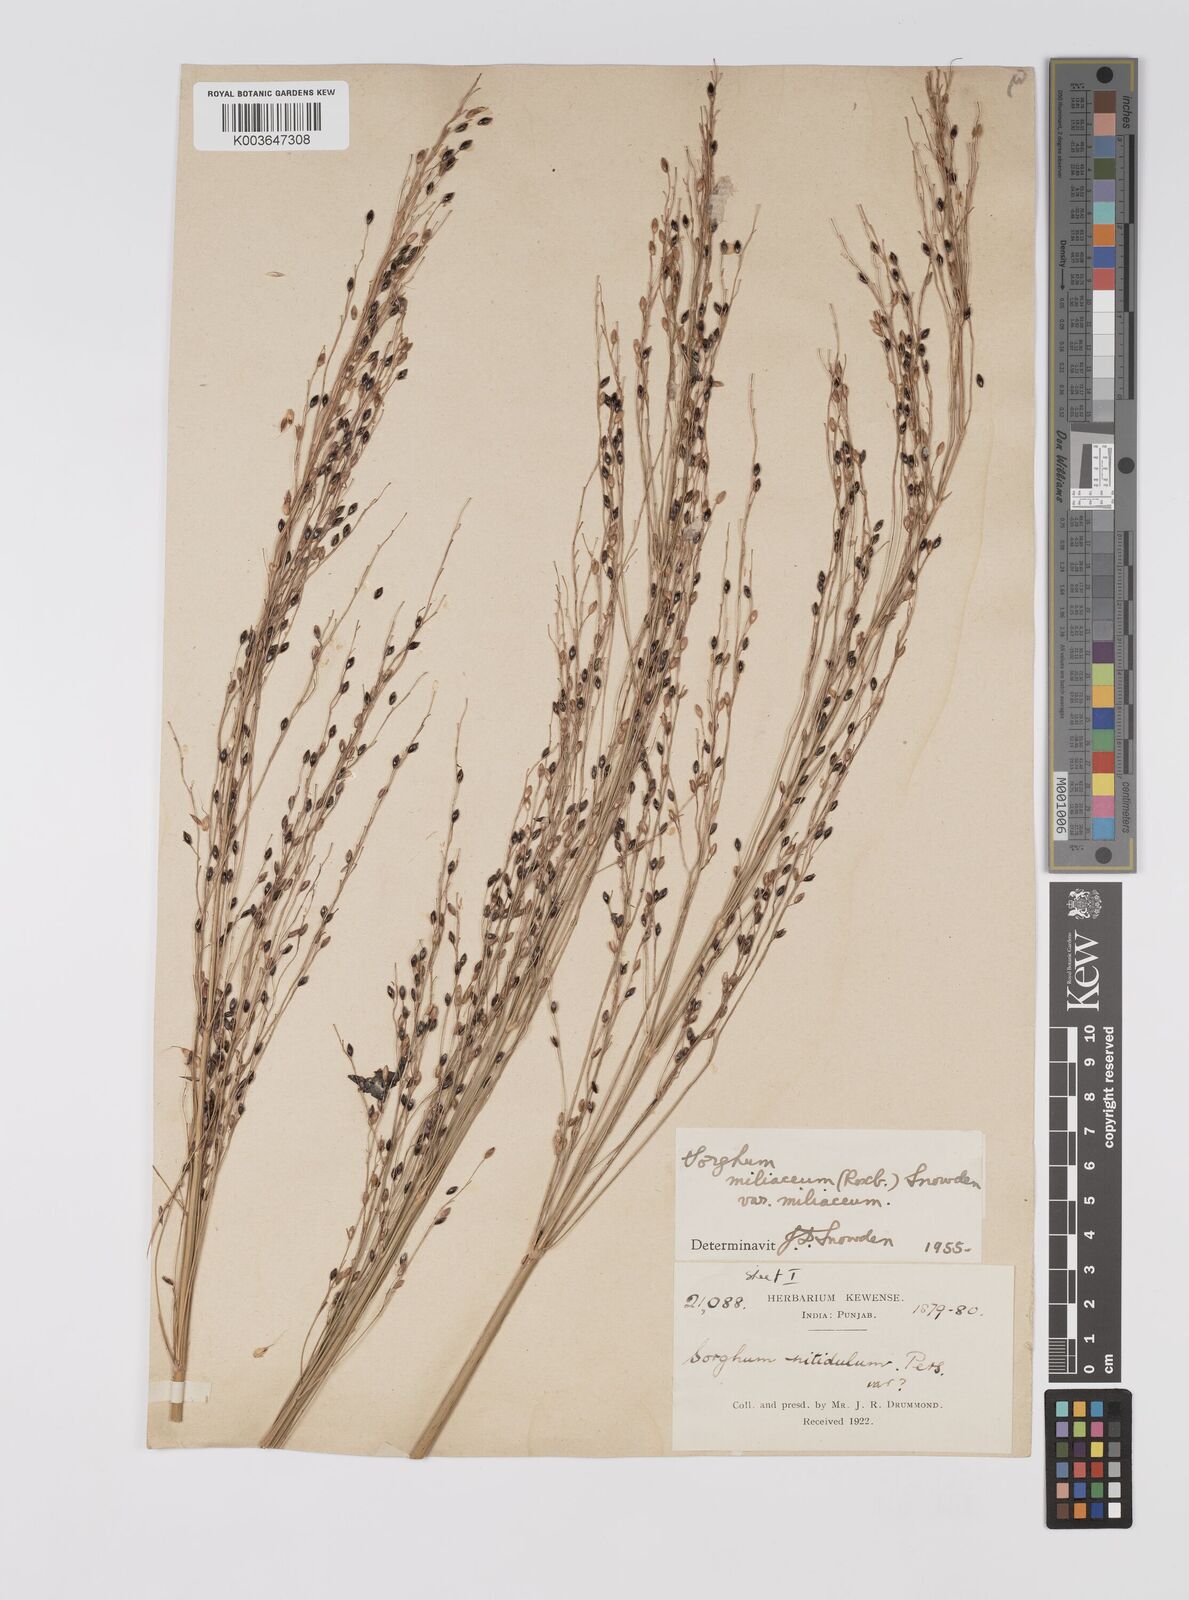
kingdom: Plantae
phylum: Tracheophyta
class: Liliopsida
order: Poales
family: Poaceae
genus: Sorghum
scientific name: Sorghum halepense
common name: Johnson-grass
